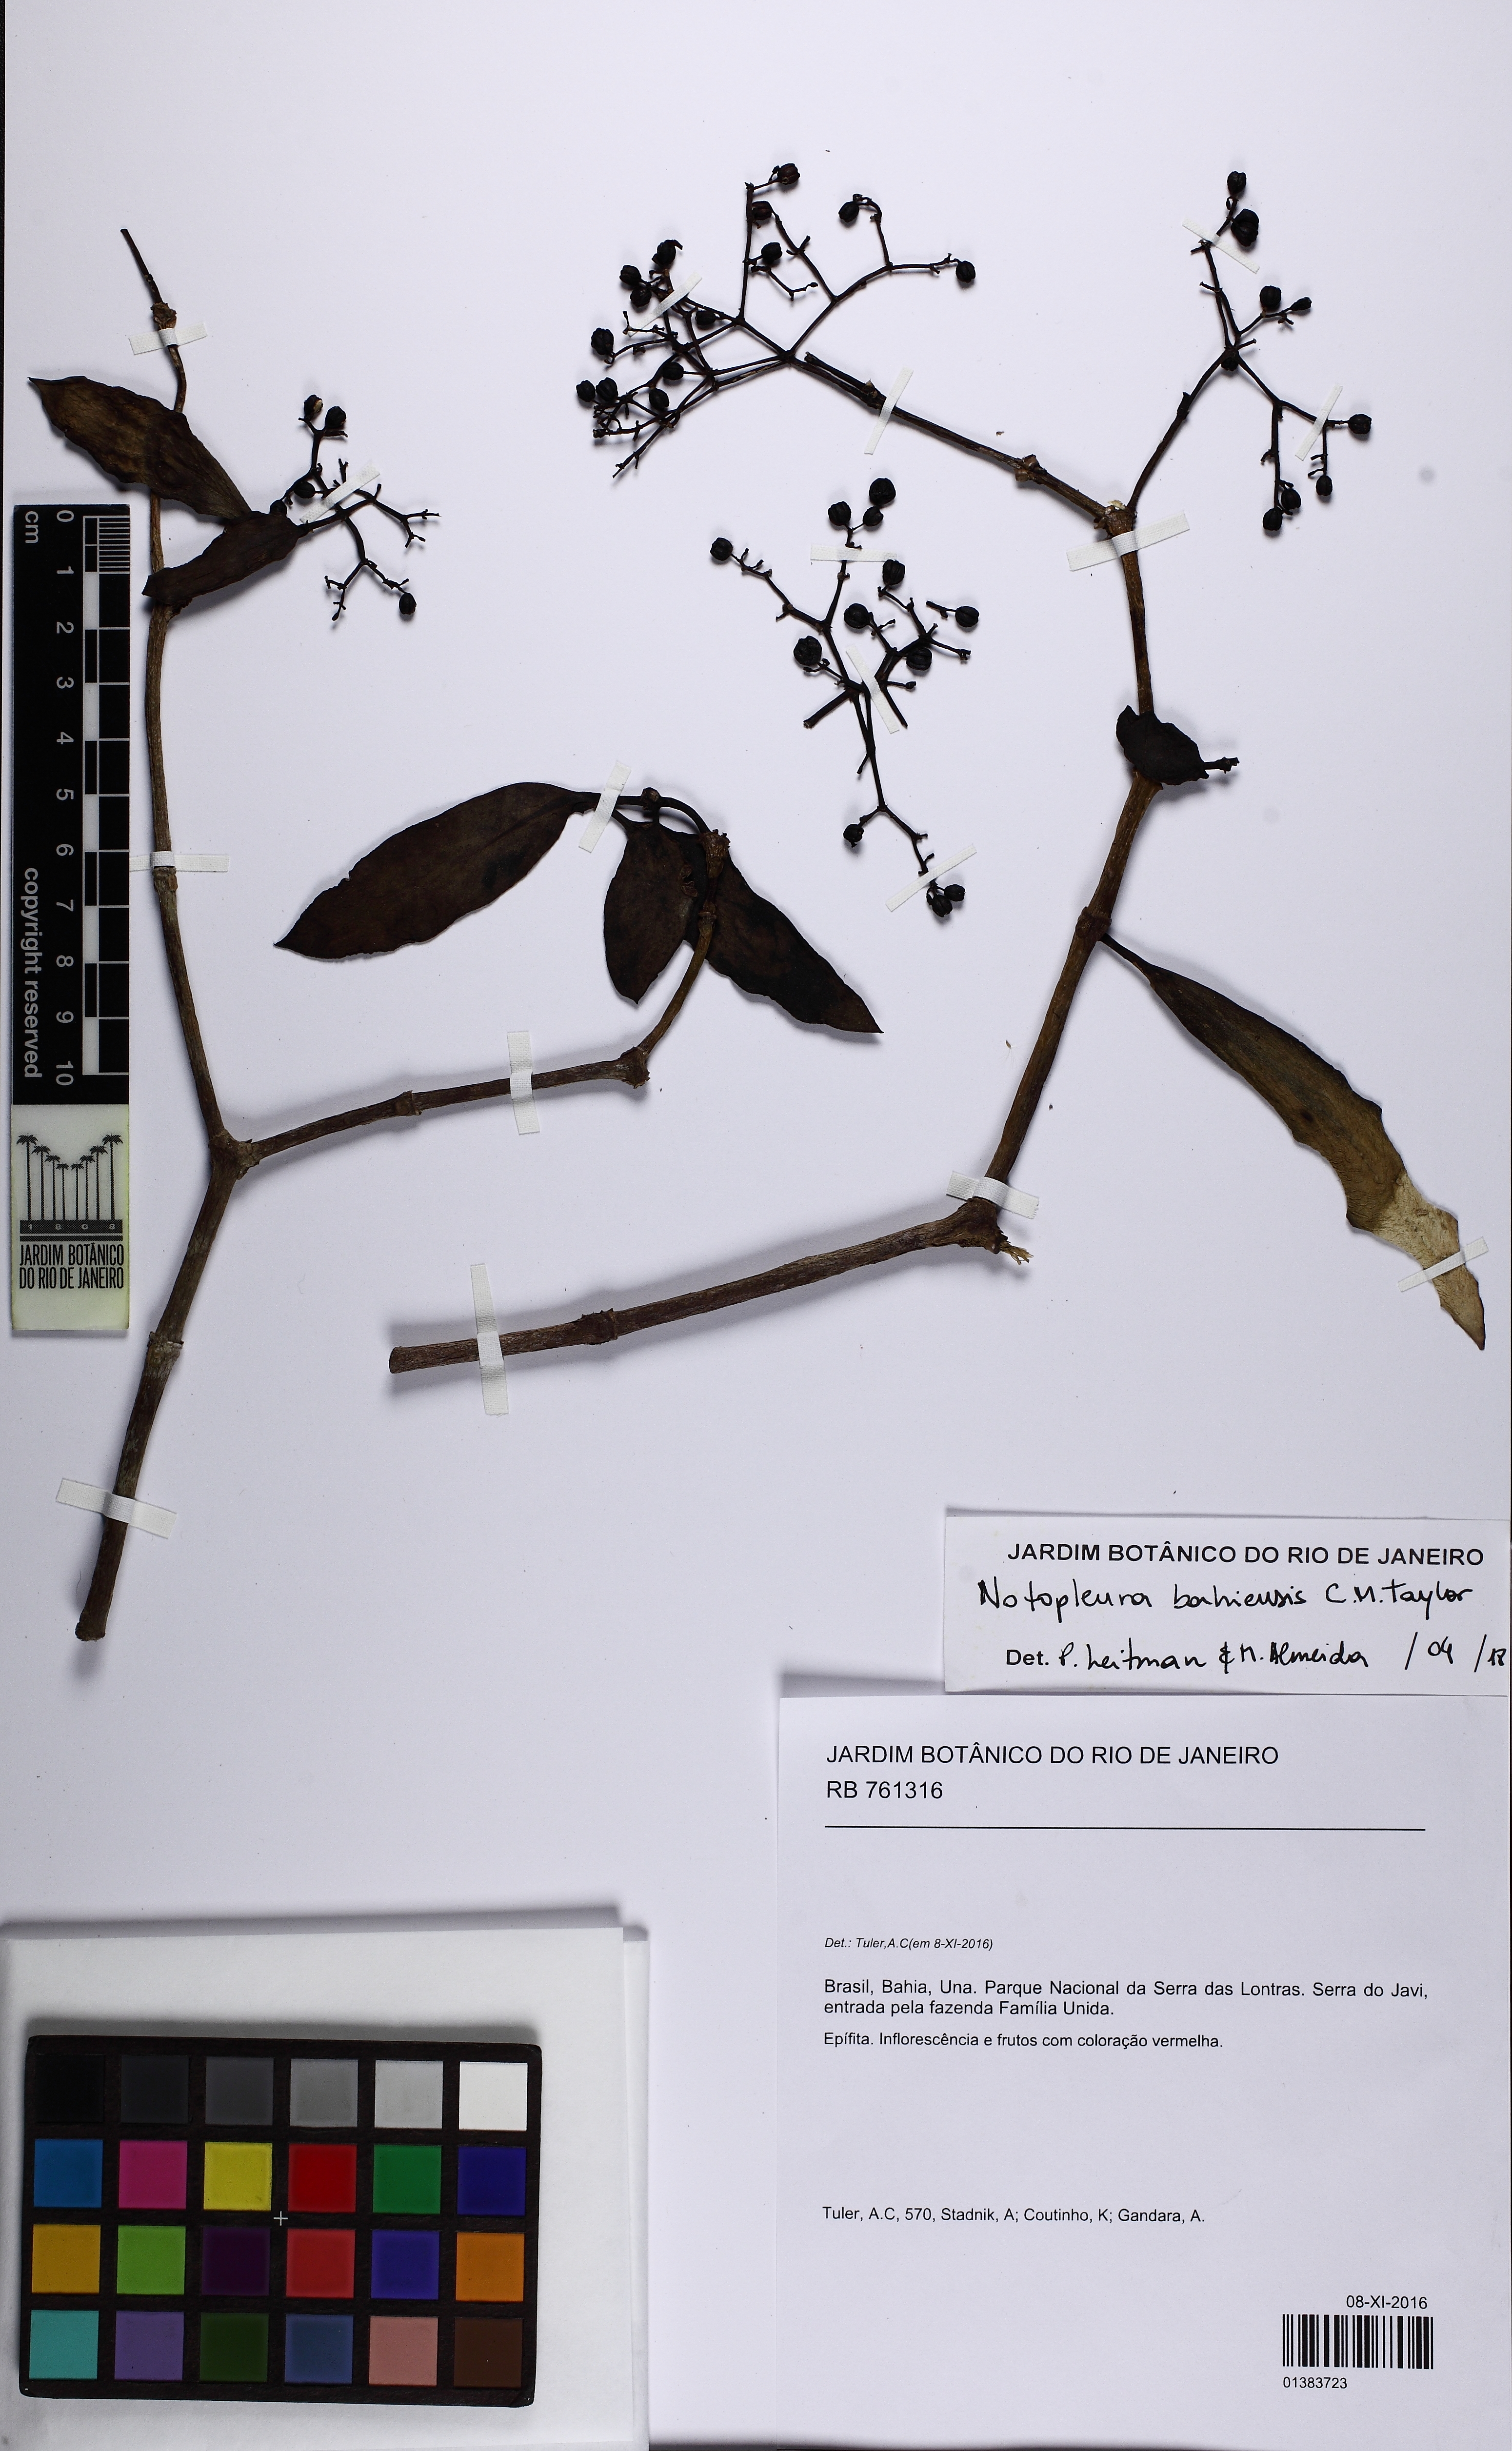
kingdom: Plantae
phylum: Tracheophyta
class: Magnoliopsida
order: Gentianales
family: Rubiaceae
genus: Notopleura
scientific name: Notopleura bahiensis
